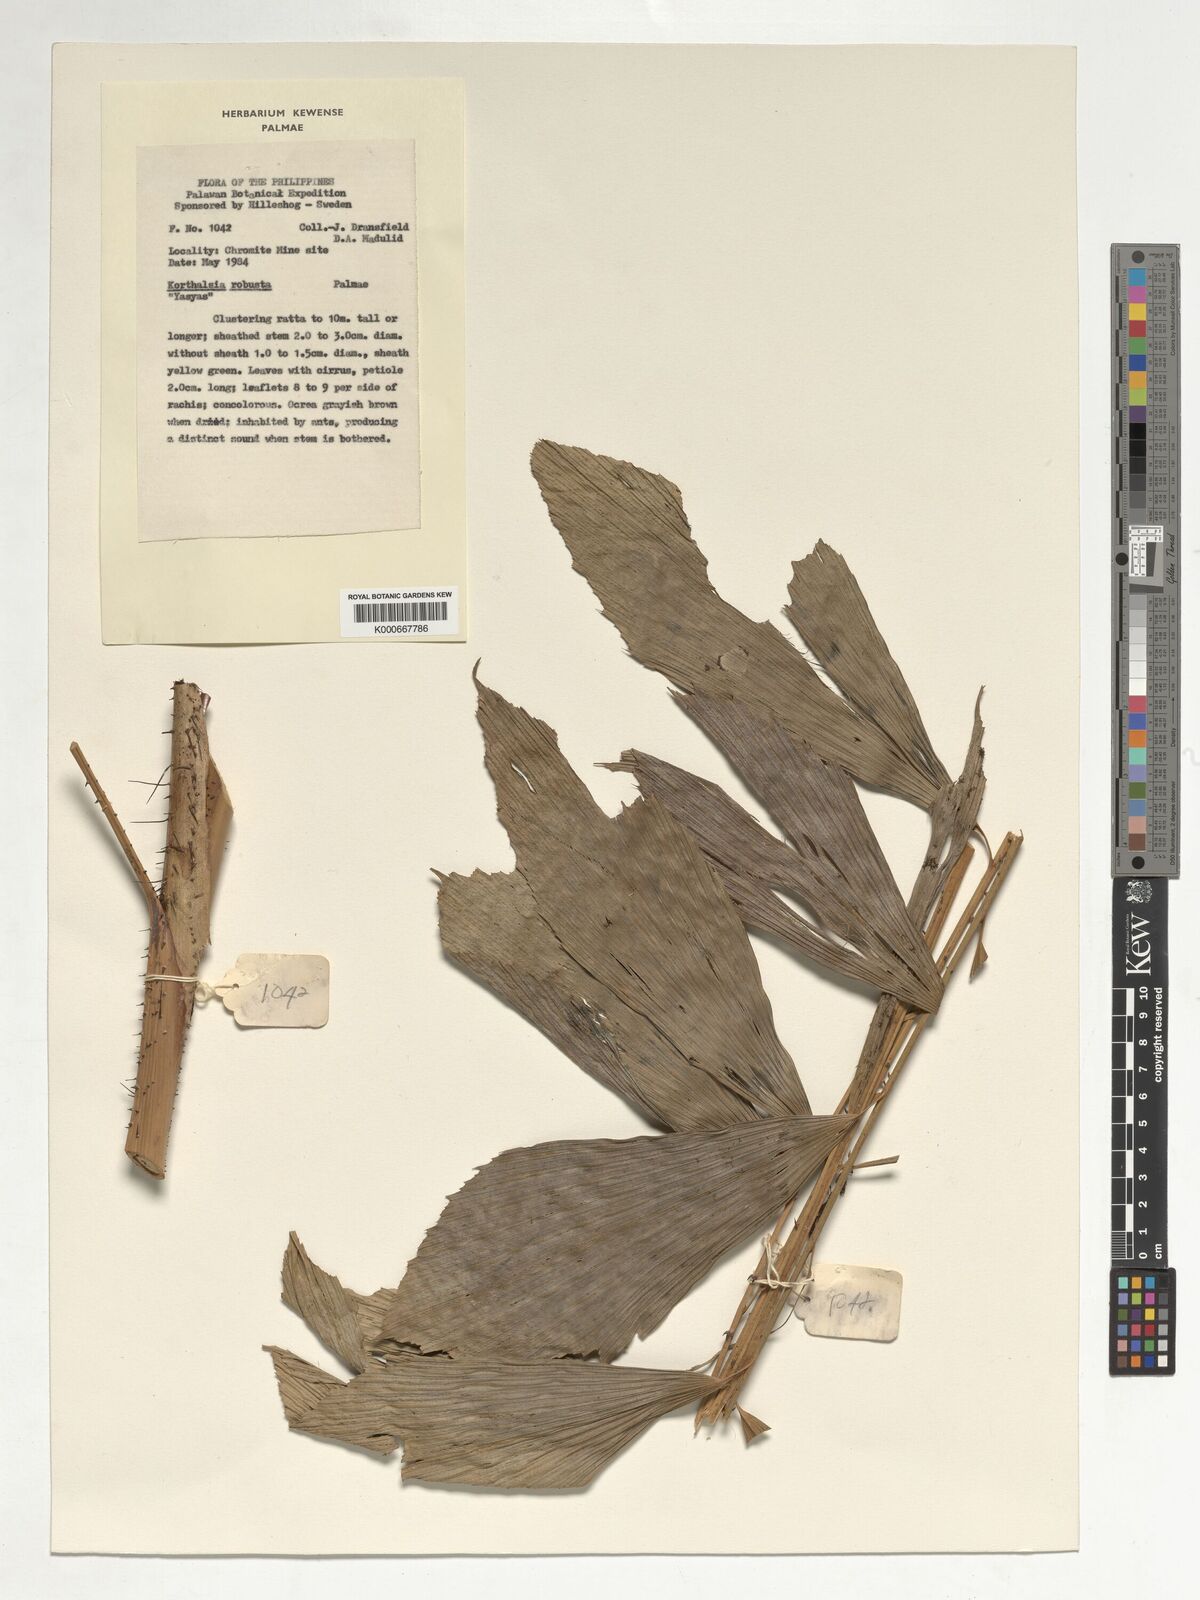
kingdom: Plantae
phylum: Tracheophyta
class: Liliopsida
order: Arecales
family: Arecaceae
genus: Korthalsia
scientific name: Korthalsia robusta
